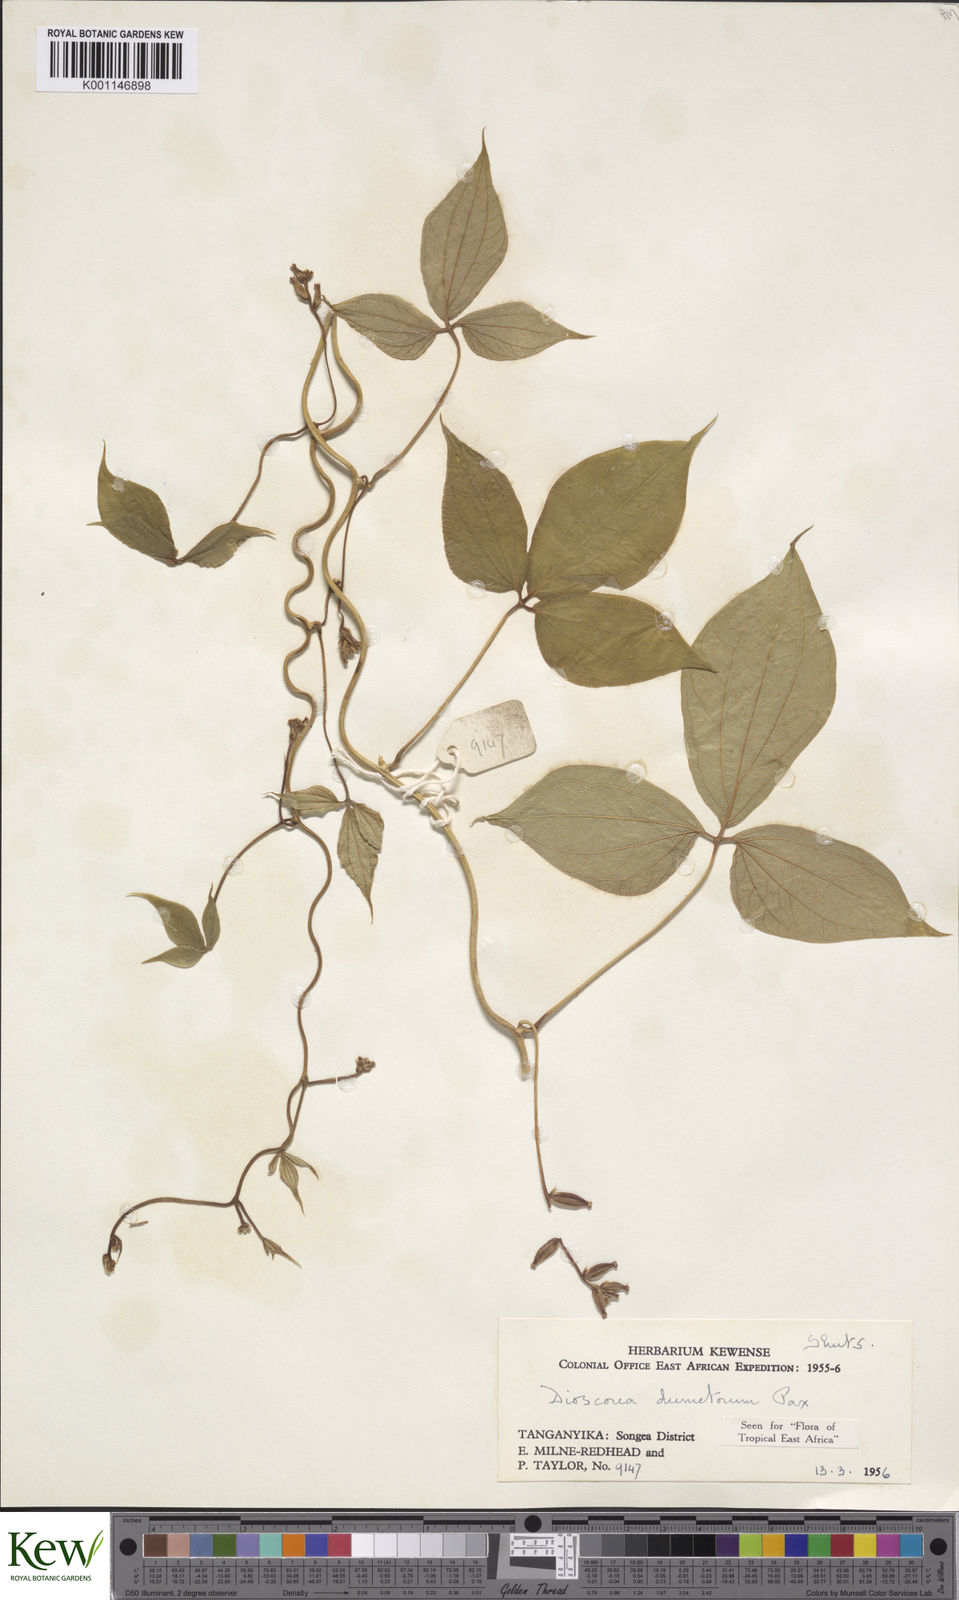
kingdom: Plantae
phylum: Tracheophyta
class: Liliopsida
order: Dioscoreales
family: Dioscoreaceae
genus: Dioscorea
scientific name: Dioscorea dumetorum
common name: African bitter yam
